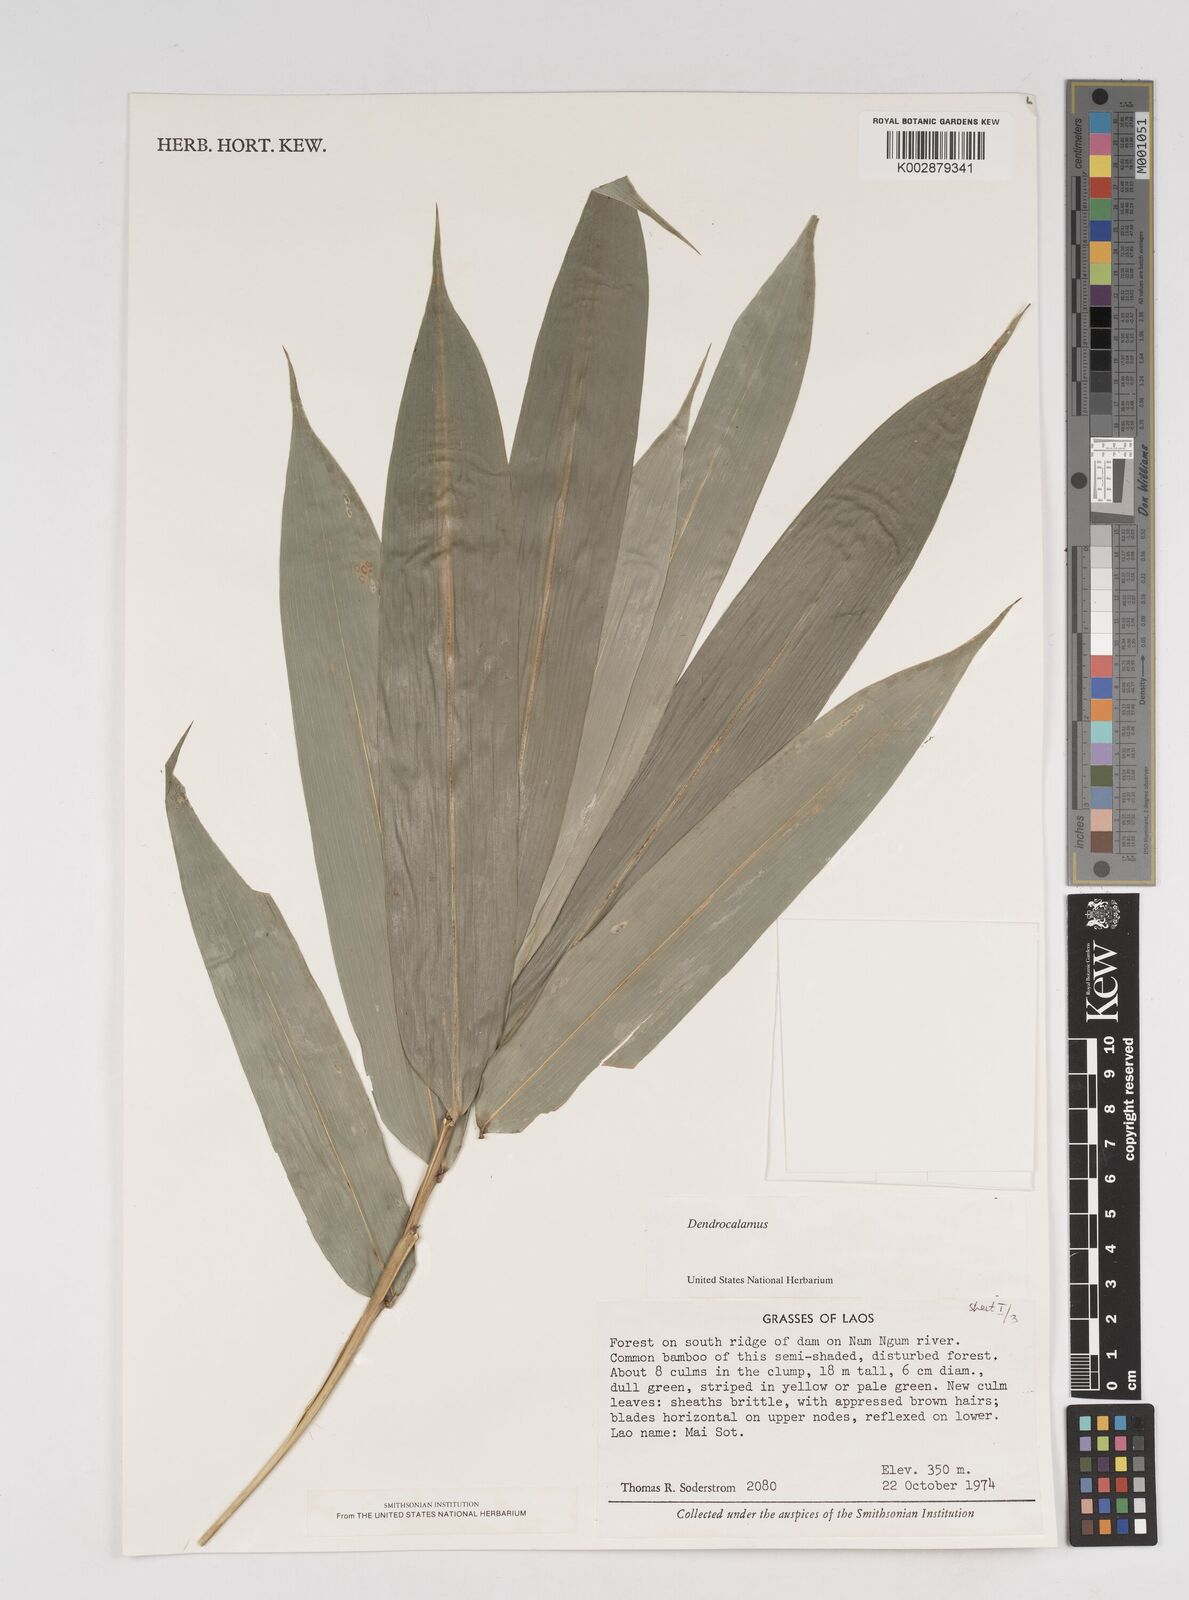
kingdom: Plantae
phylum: Tracheophyta
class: Liliopsida
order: Poales
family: Poaceae
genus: Dendrocalamus
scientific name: Dendrocalamus
